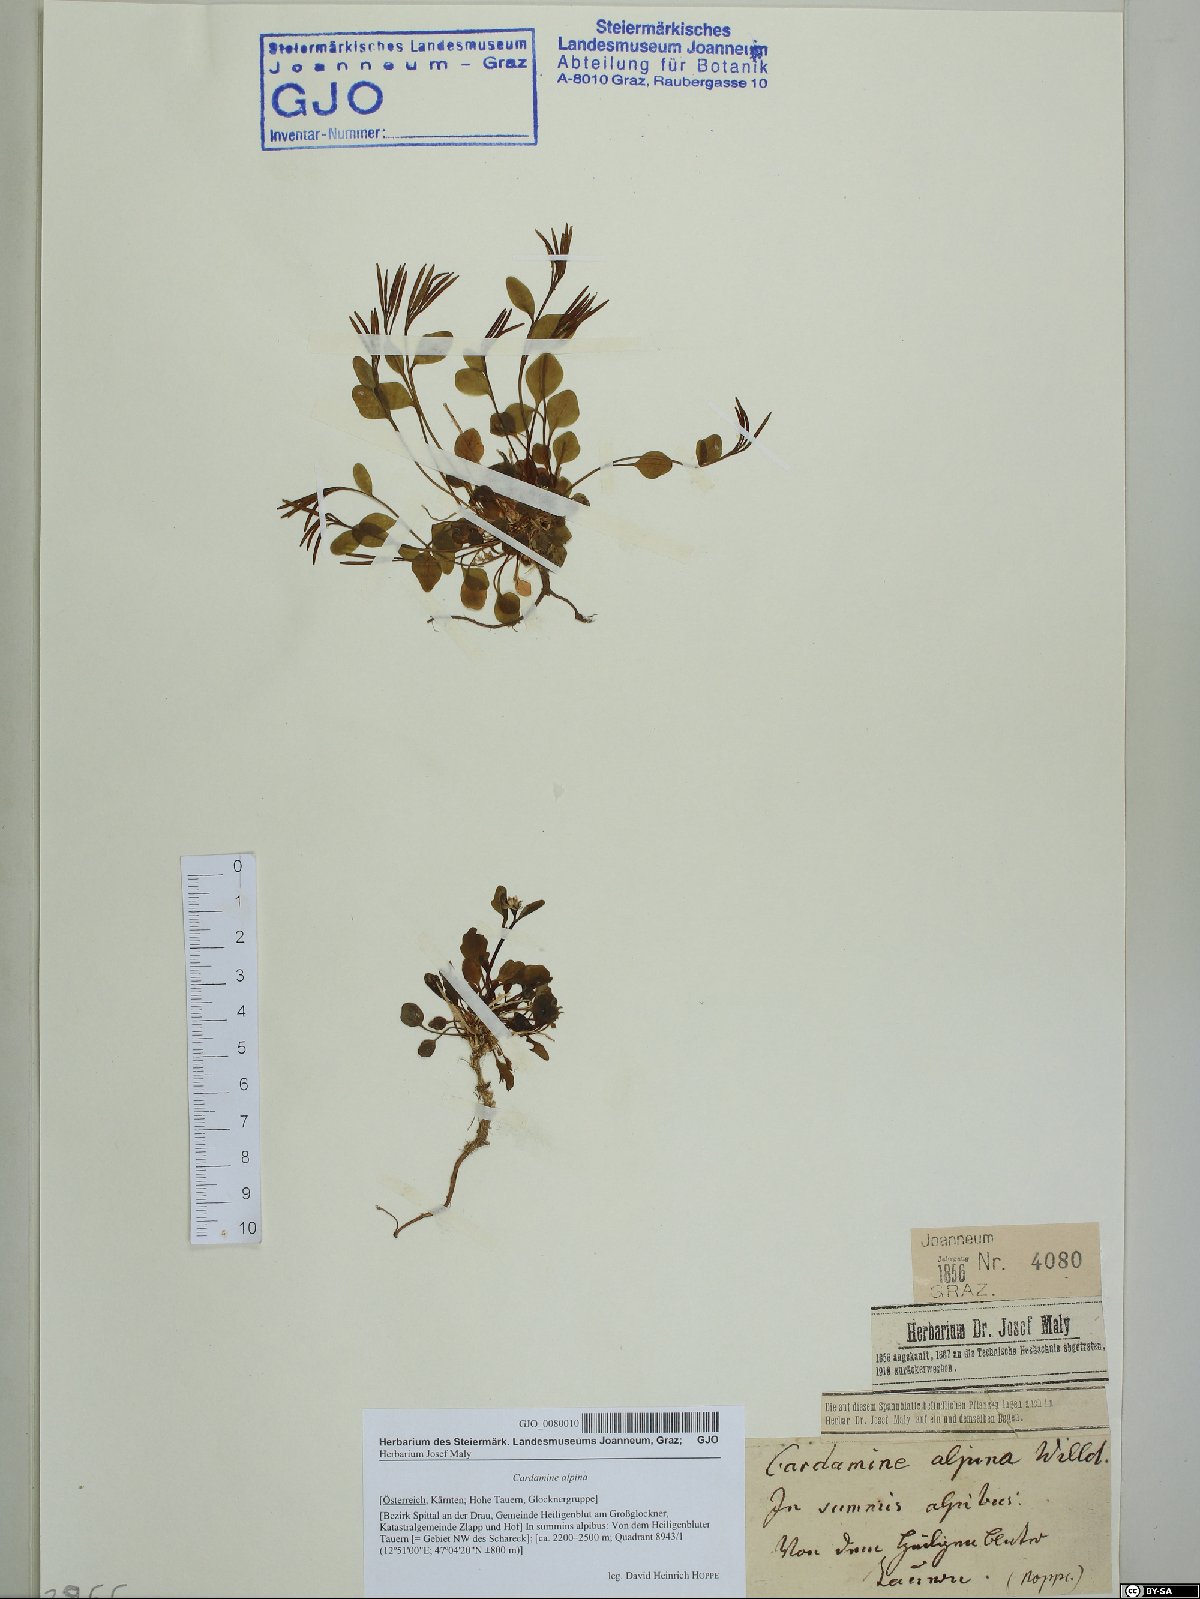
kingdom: Plantae
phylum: Tracheophyta
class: Magnoliopsida
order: Brassicales
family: Brassicaceae
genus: Cardamine
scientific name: Cardamine bellidifolia
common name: Alpine bittercress
